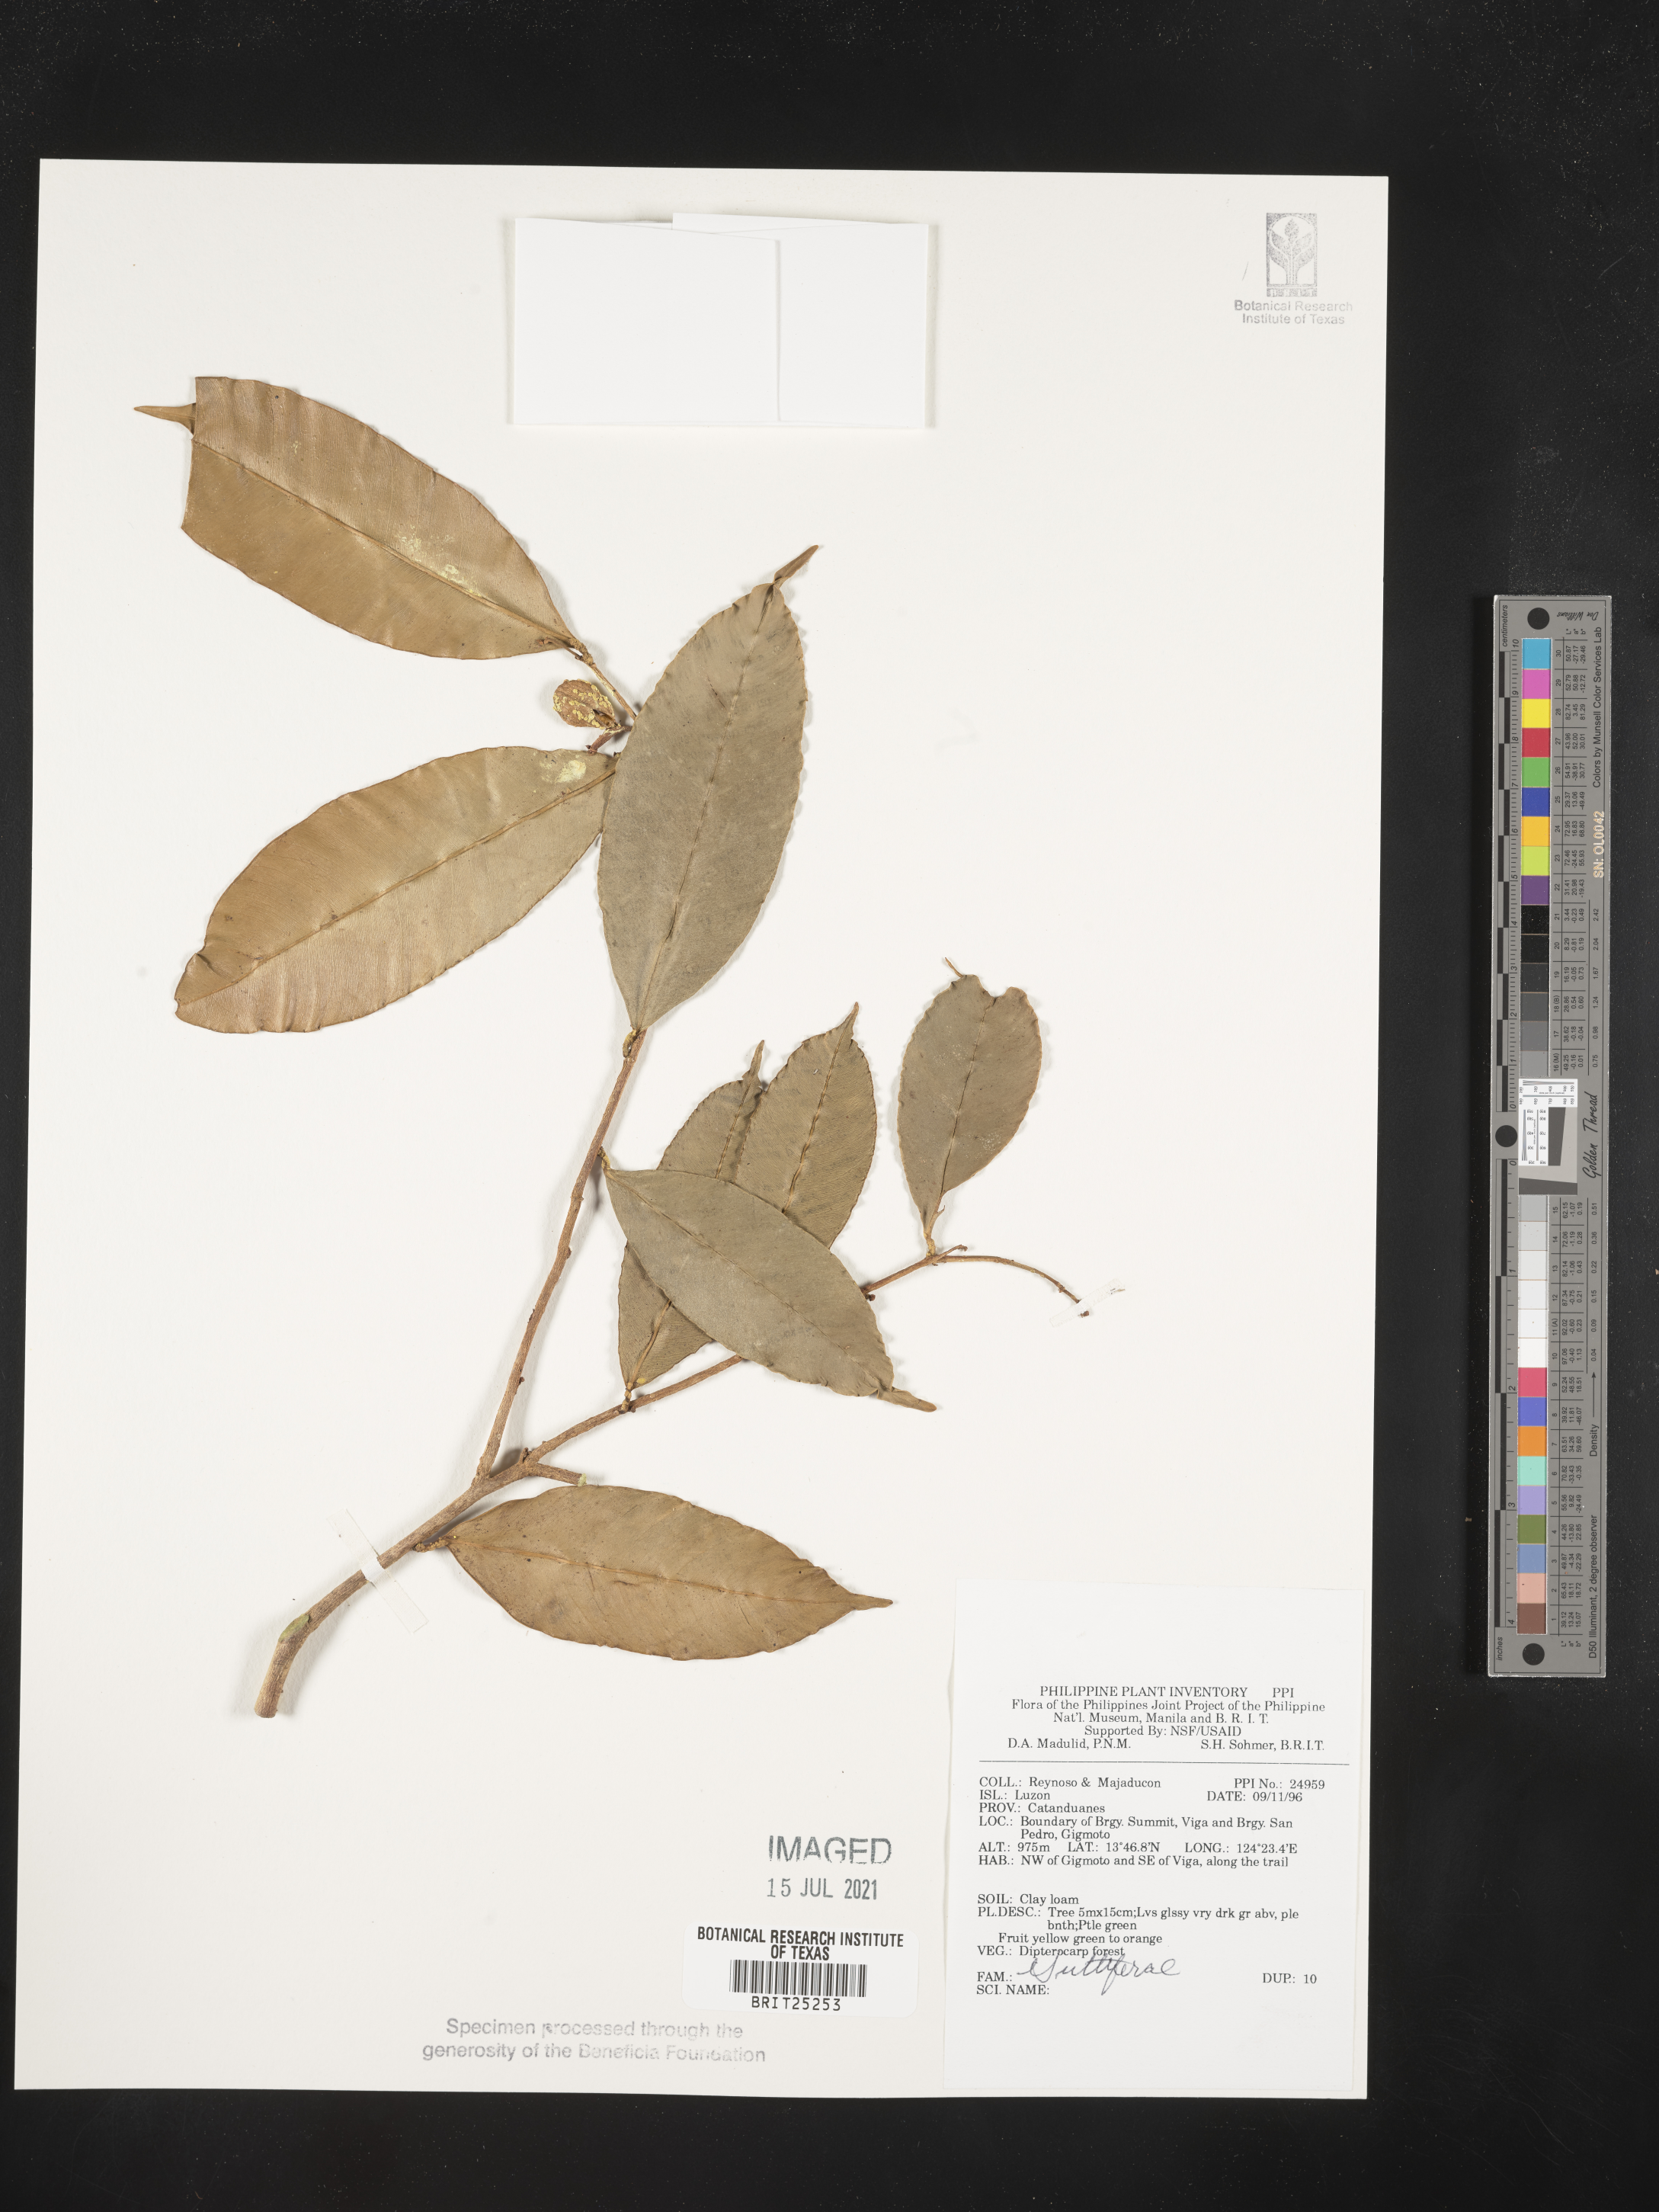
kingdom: Plantae
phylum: Tracheophyta
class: Magnoliopsida
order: Malpighiales
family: Hypericaceae
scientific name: Hypericaceae
